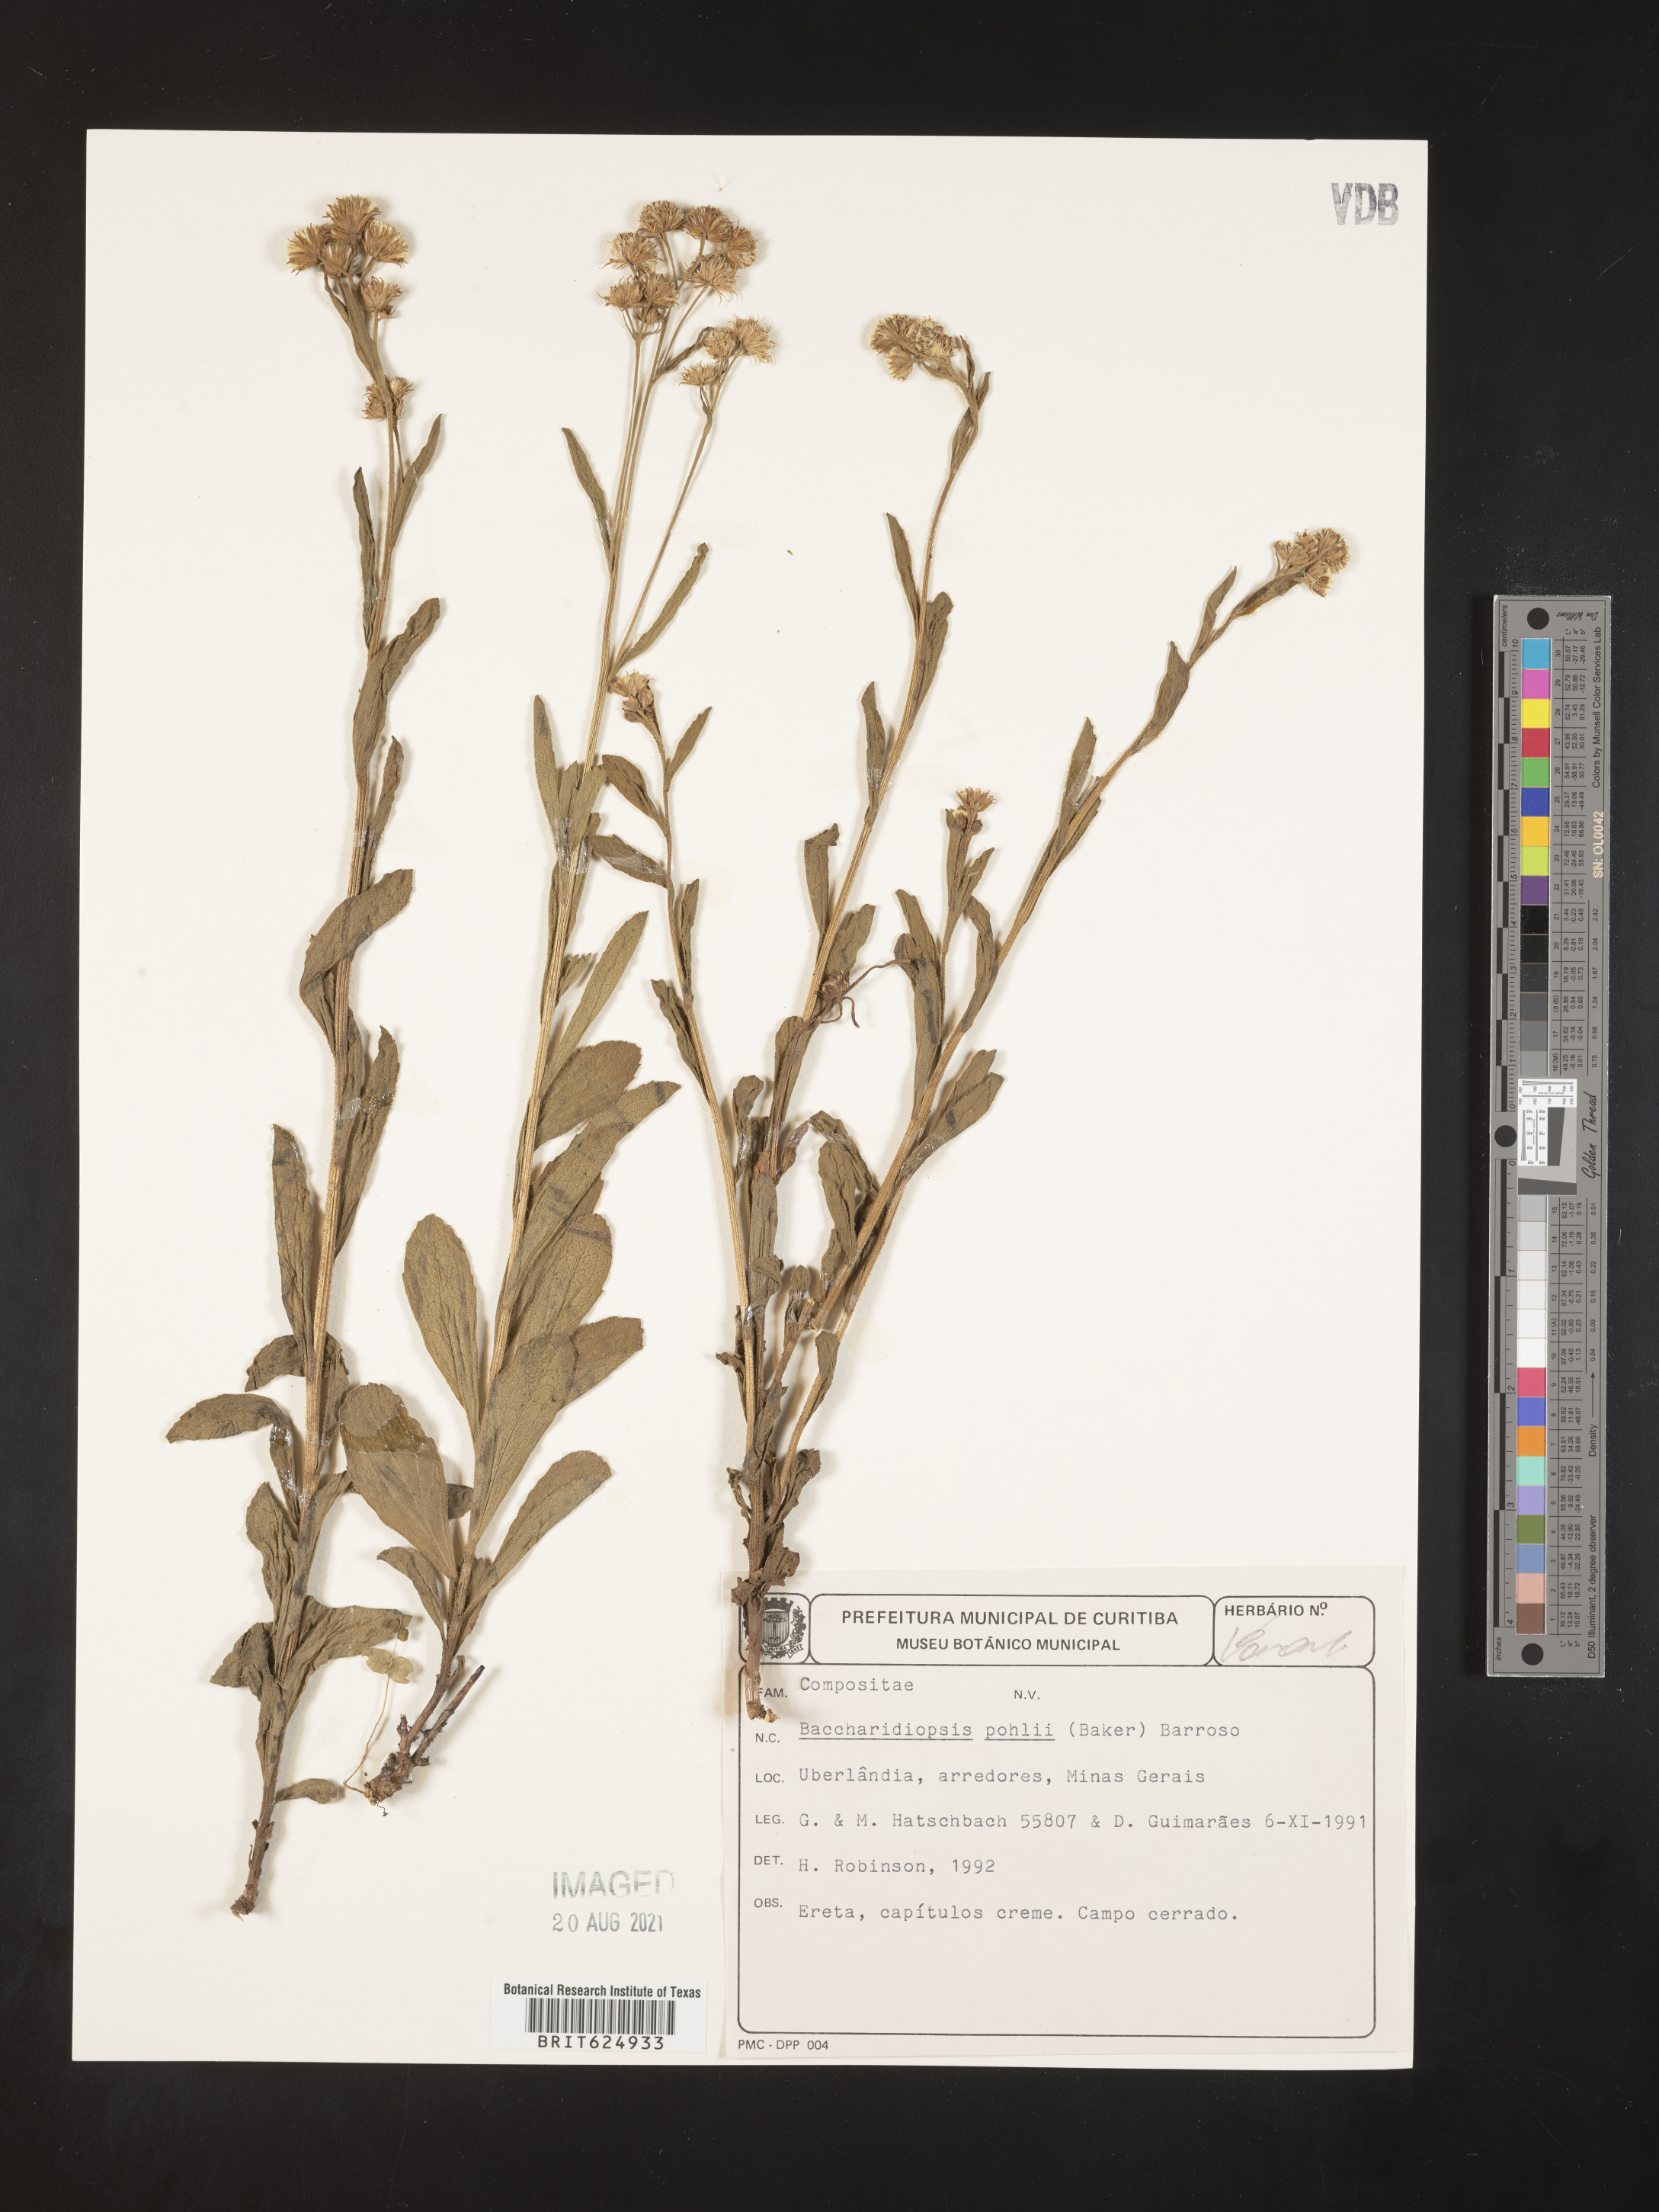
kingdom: Plantae
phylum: Tracheophyta
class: Magnoliopsida
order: Asterales
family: Asteraceae
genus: Baccharis
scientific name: Baccharis pohlii
